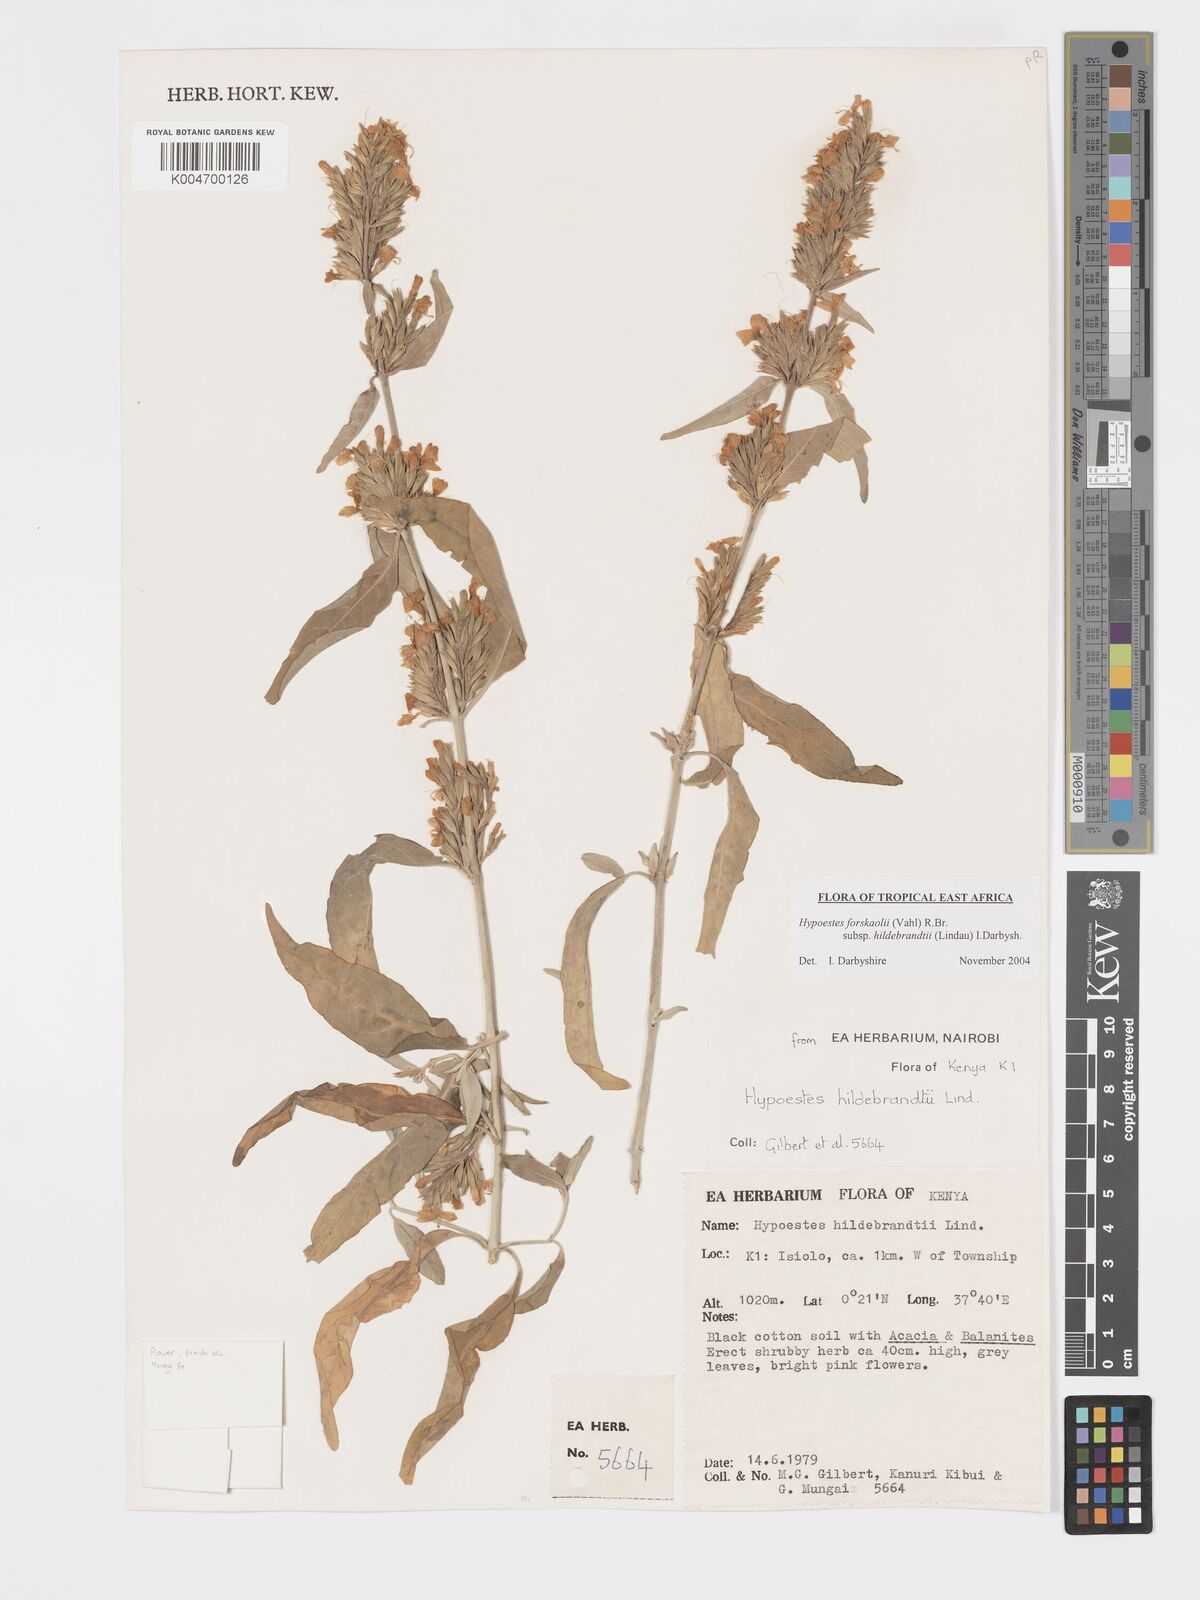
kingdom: Plantae
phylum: Tracheophyta
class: Magnoliopsida
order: Lamiales
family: Acanthaceae
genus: Hypoestes
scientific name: Hypoestes forskaolii
